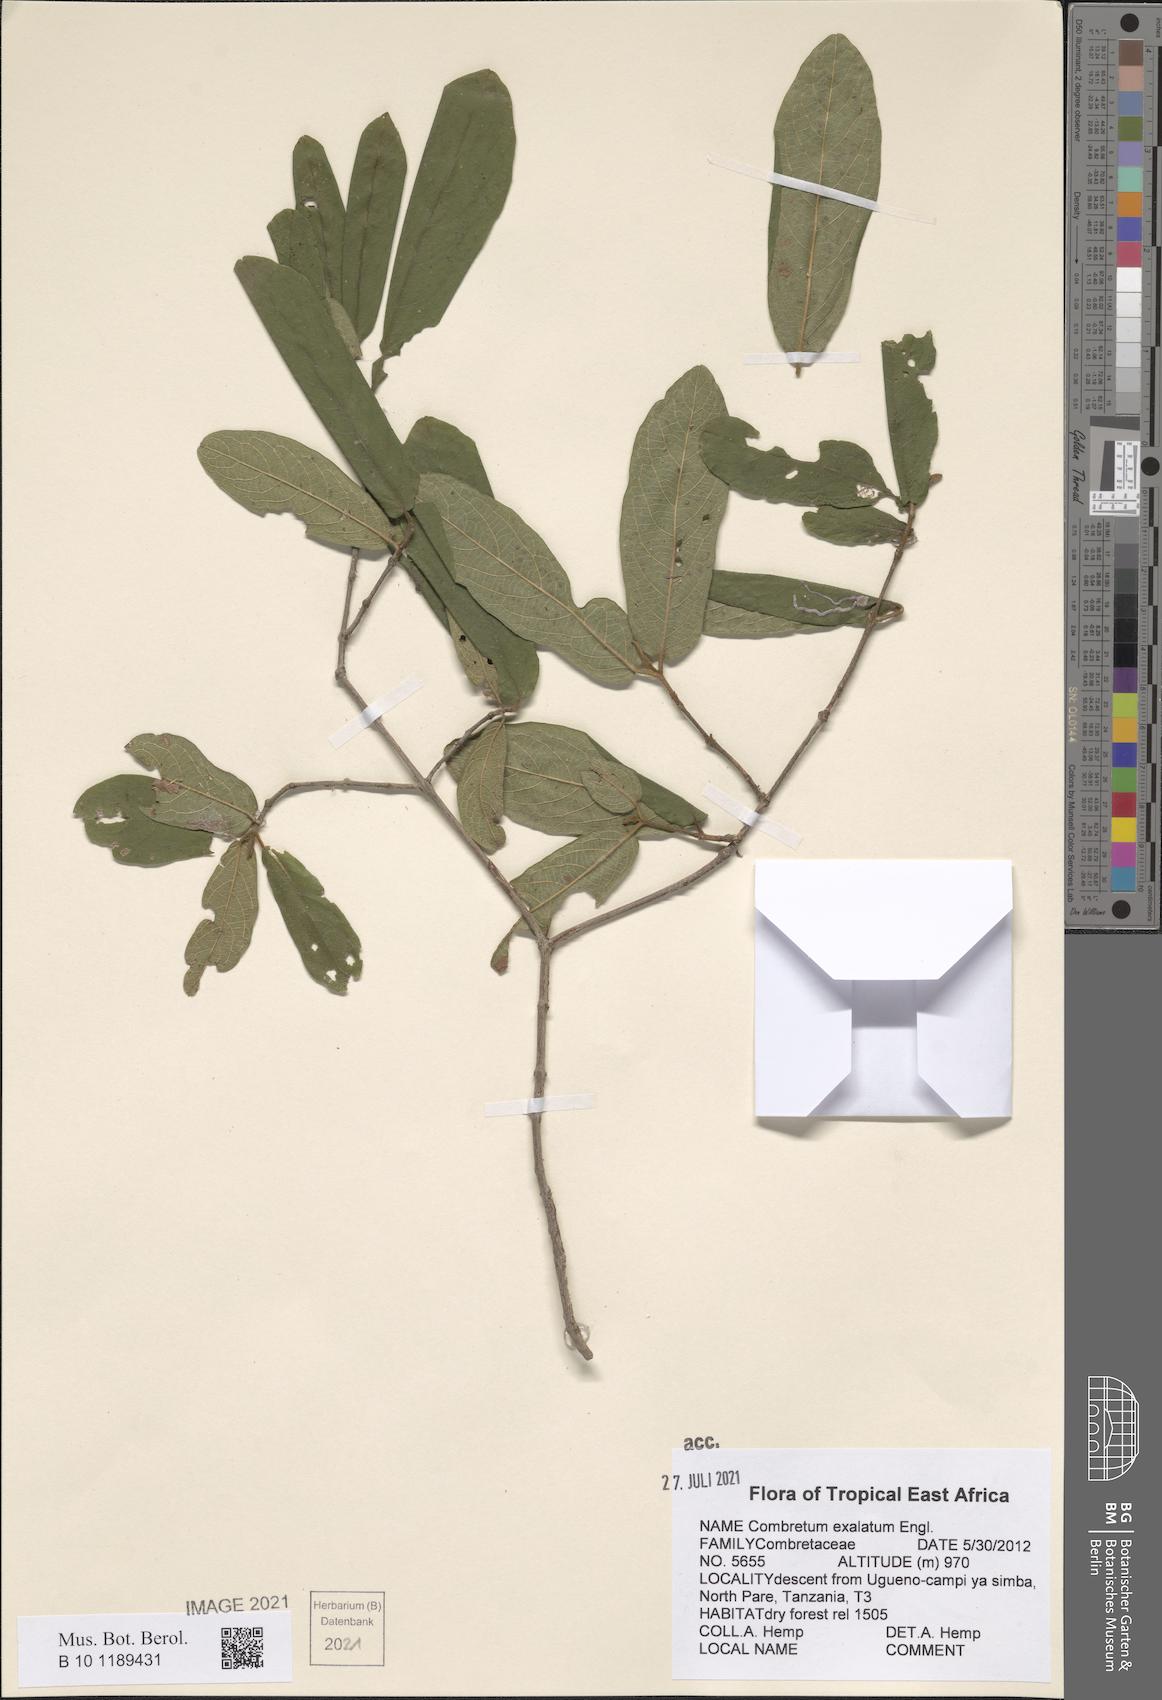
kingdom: Plantae
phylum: Tracheophyta
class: Magnoliopsida
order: Myrtales
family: Combretaceae
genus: Combretum
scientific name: Combretum exalatum
